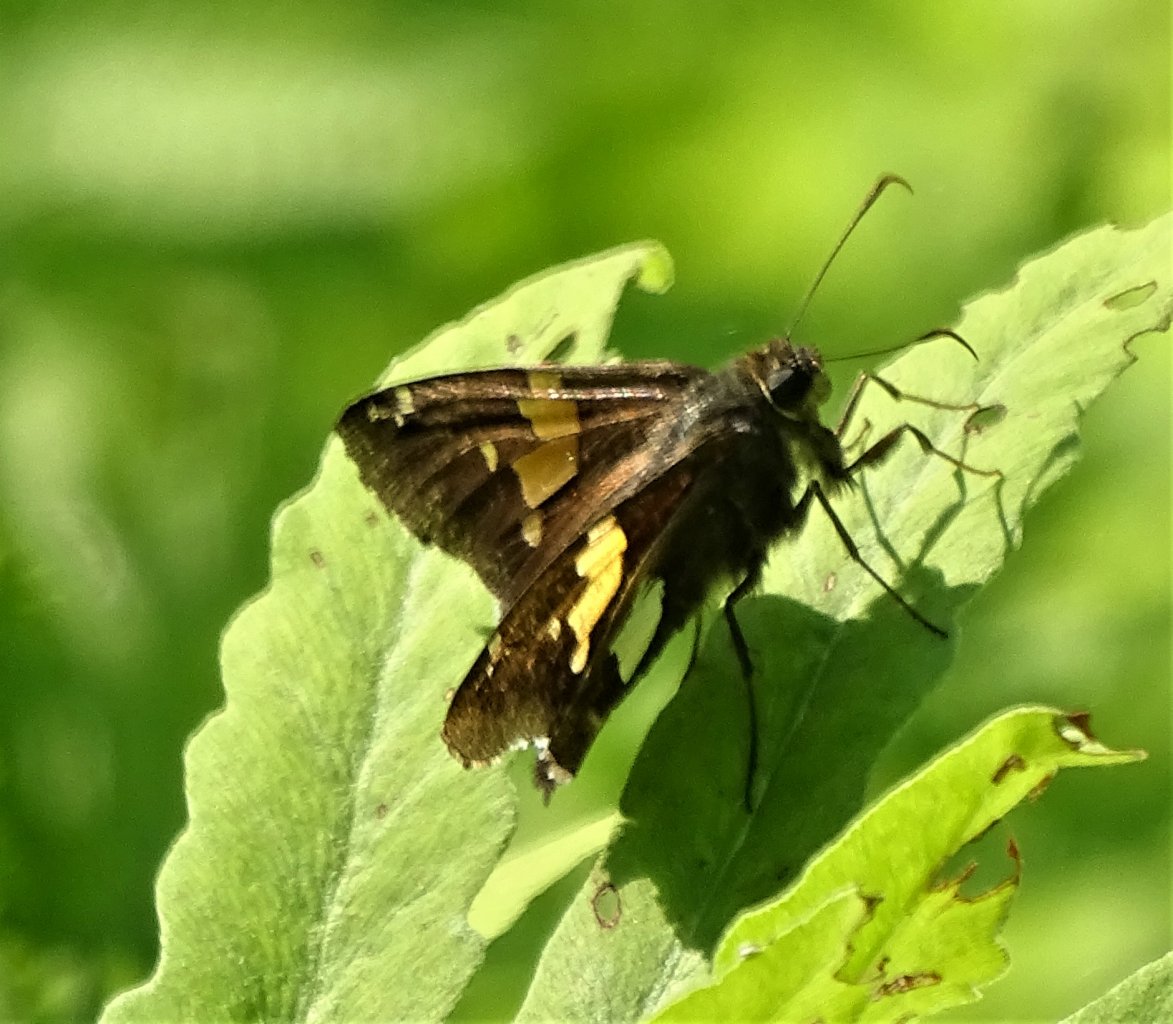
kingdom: Animalia
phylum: Arthropoda
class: Insecta
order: Lepidoptera
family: Hesperiidae
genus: Epargyreus
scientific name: Epargyreus clarus
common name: Silver-spotted Skipper
